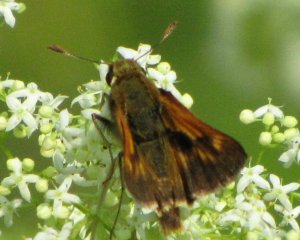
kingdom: Animalia
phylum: Arthropoda
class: Insecta
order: Lepidoptera
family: Hesperiidae
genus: Polites
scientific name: Polites coras
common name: Peck's Skipper
